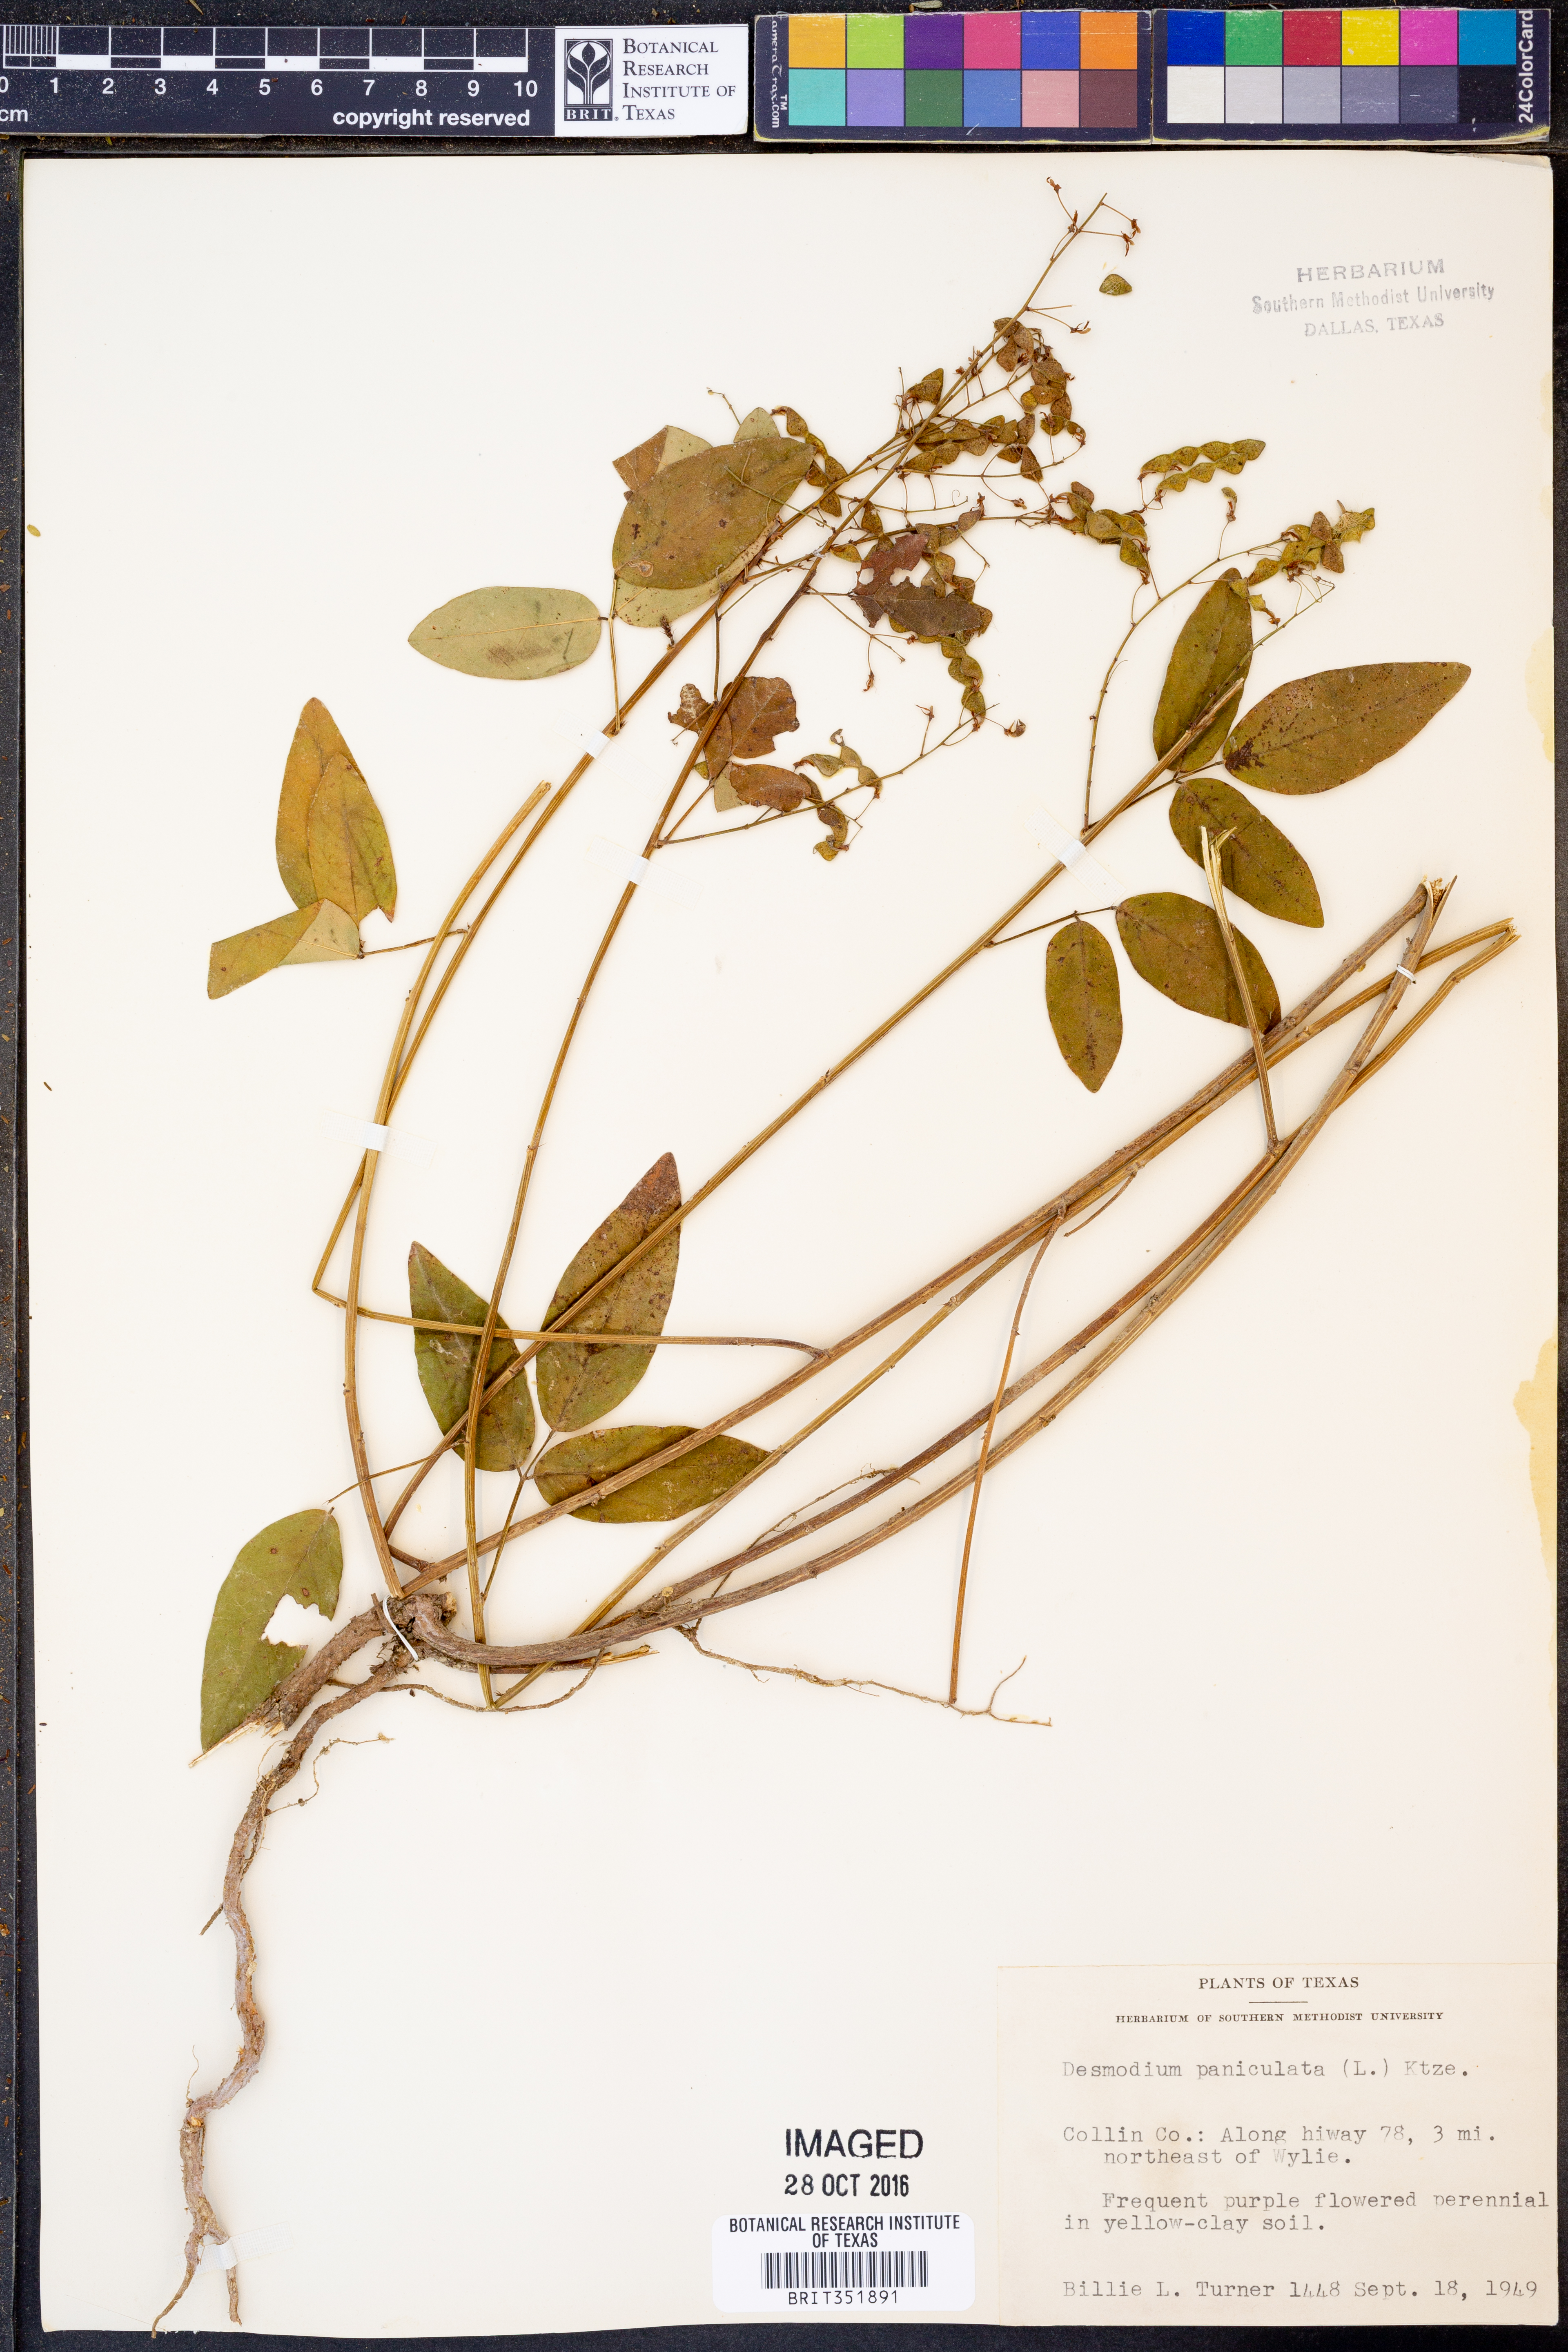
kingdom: Plantae
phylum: Tracheophyta
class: Magnoliopsida
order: Fabales
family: Fabaceae
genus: Desmodium
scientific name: Desmodium paniculatum
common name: Panicled tick-clover
